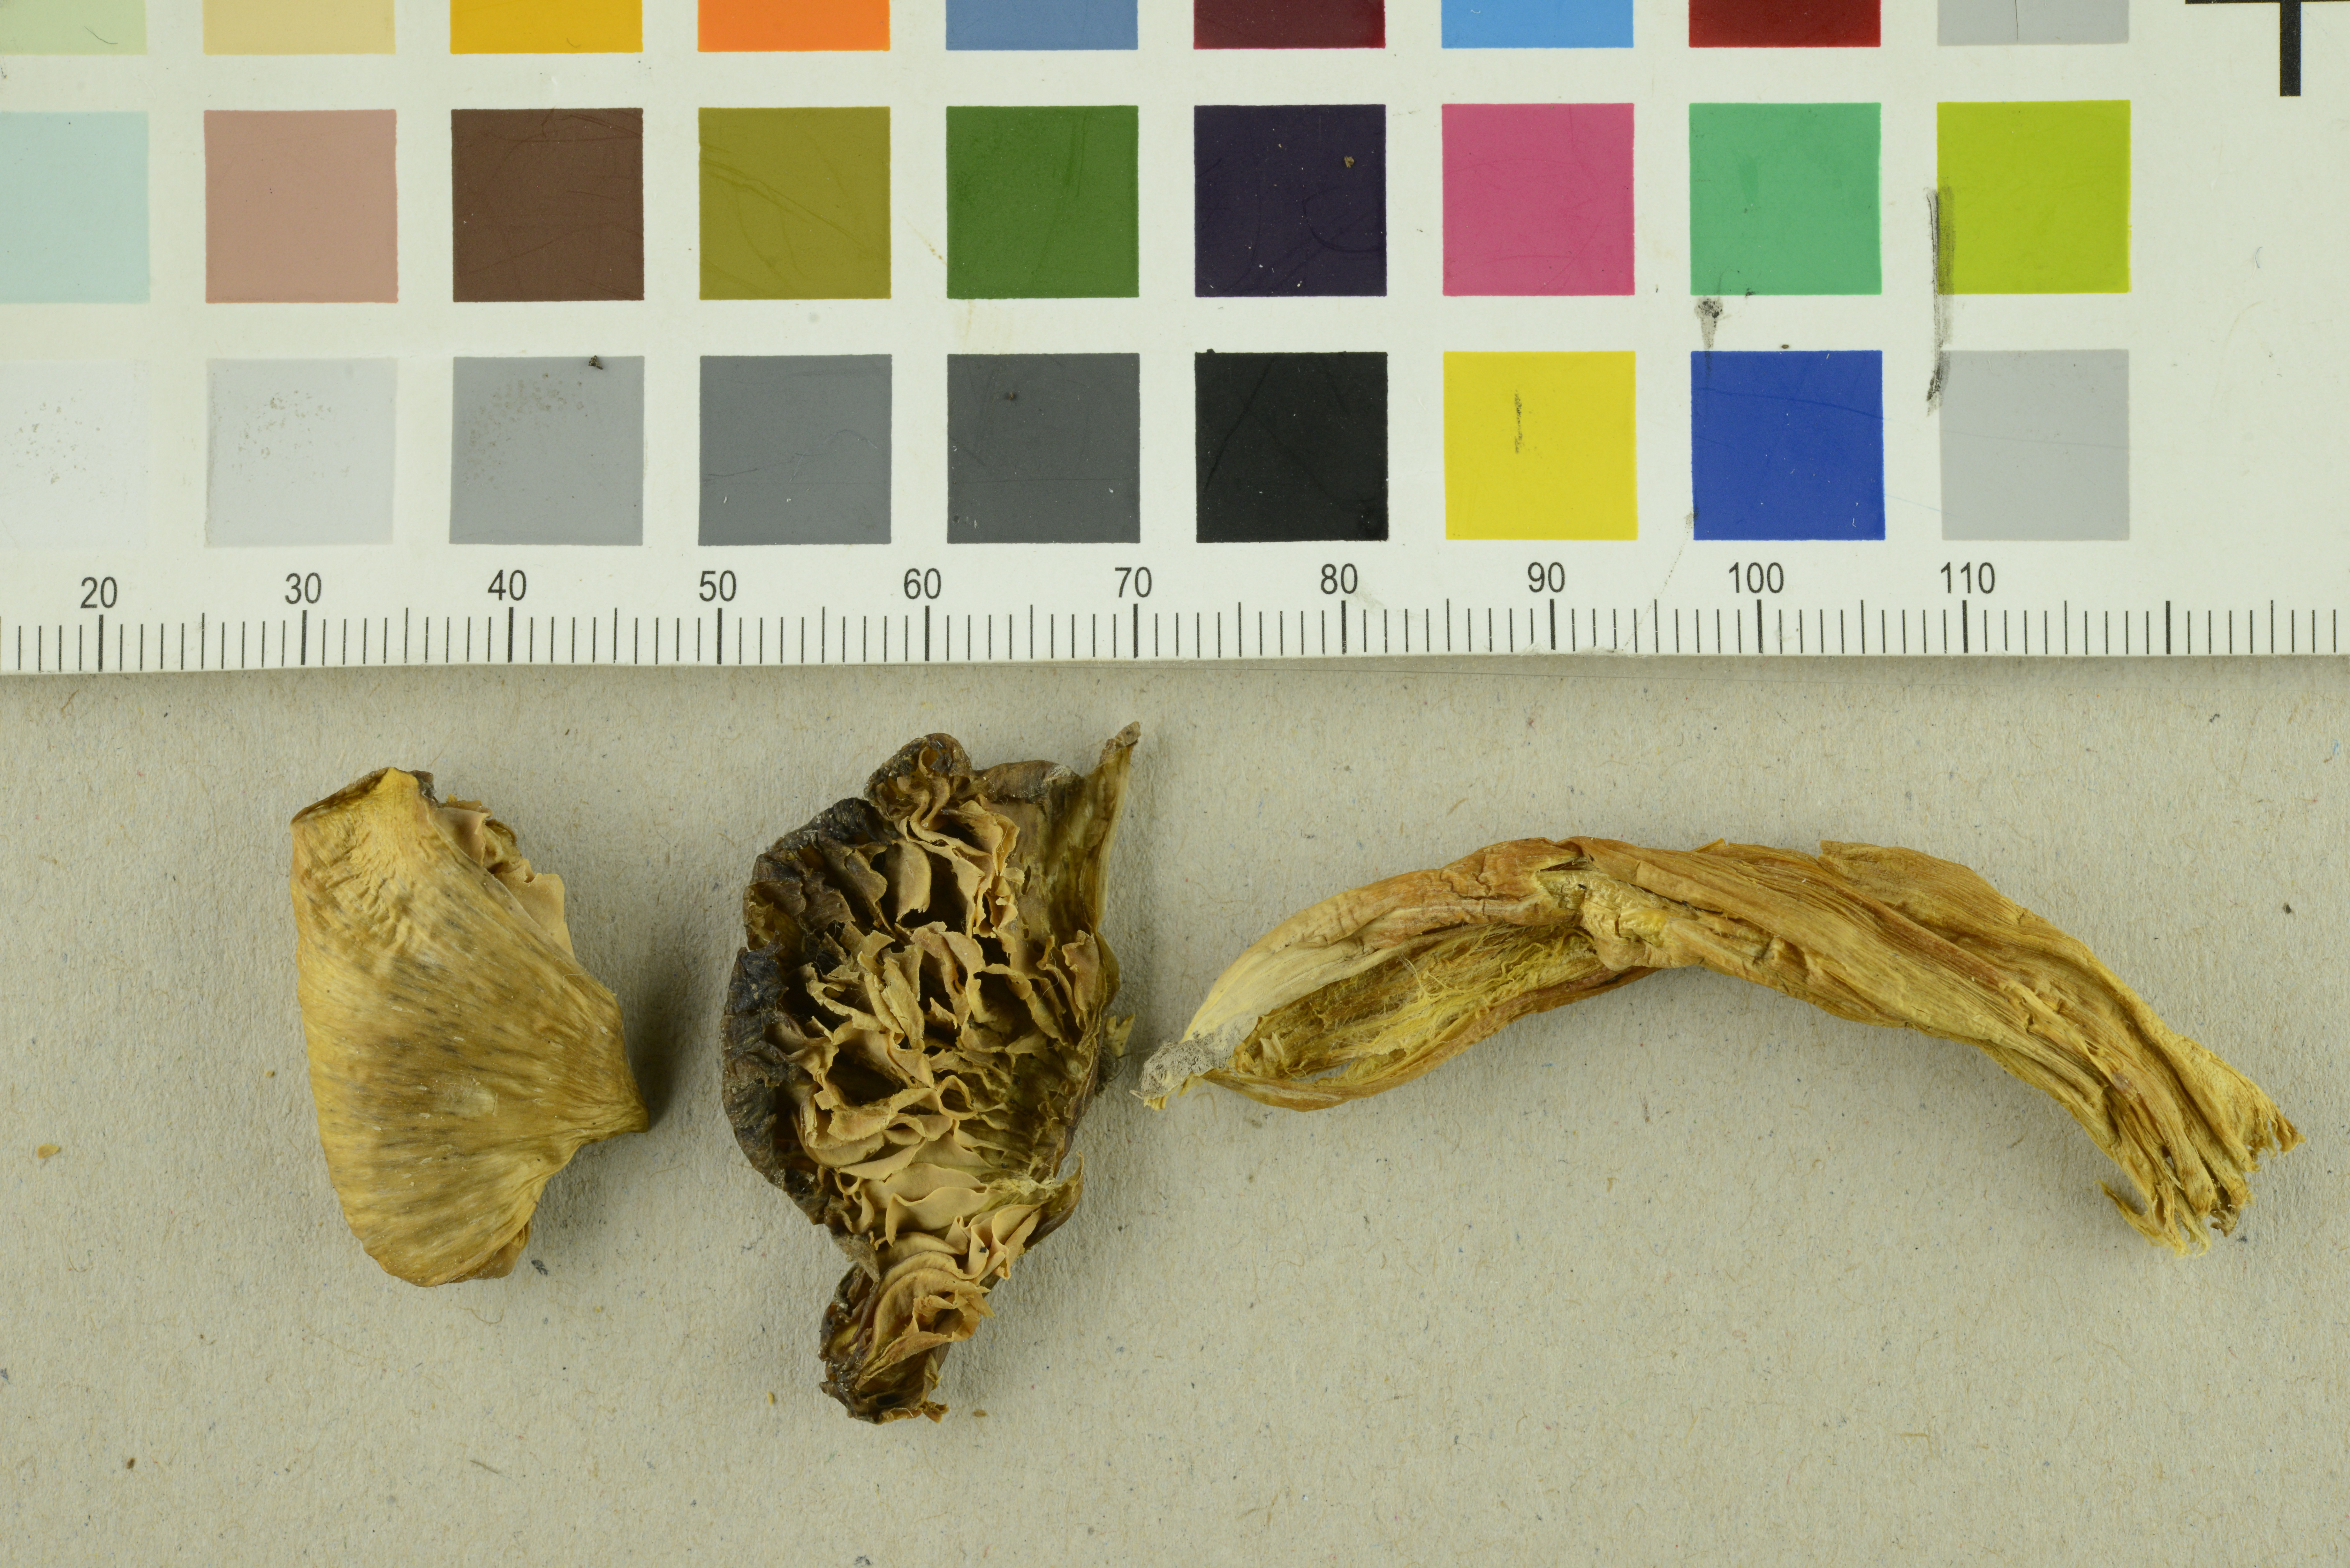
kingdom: Fungi
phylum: Basidiomycota
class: Agaricomycetes
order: Agaricales
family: Hygrophoraceae
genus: Hygrocybe
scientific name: Hygrocybe citrinovirens
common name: Citrine waxcap
